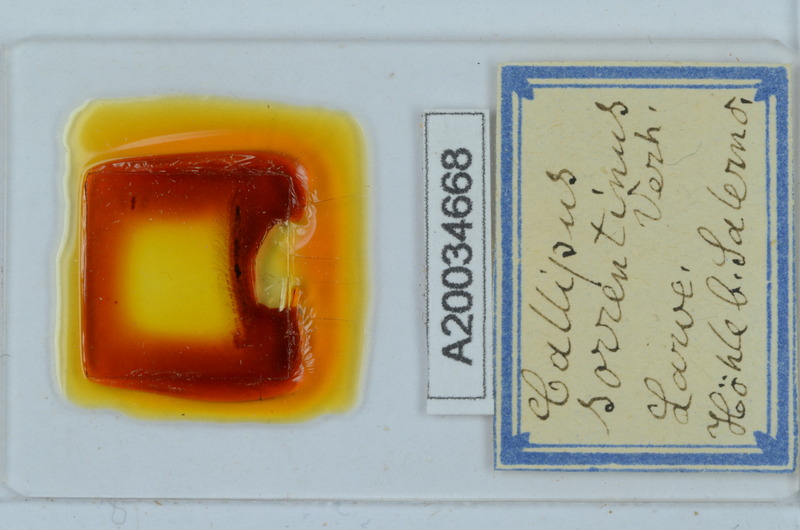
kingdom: Animalia
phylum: Arthropoda
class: Diplopoda
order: Callipodida
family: Callipodidae
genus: Callipus
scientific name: Callipus foetidissimus
